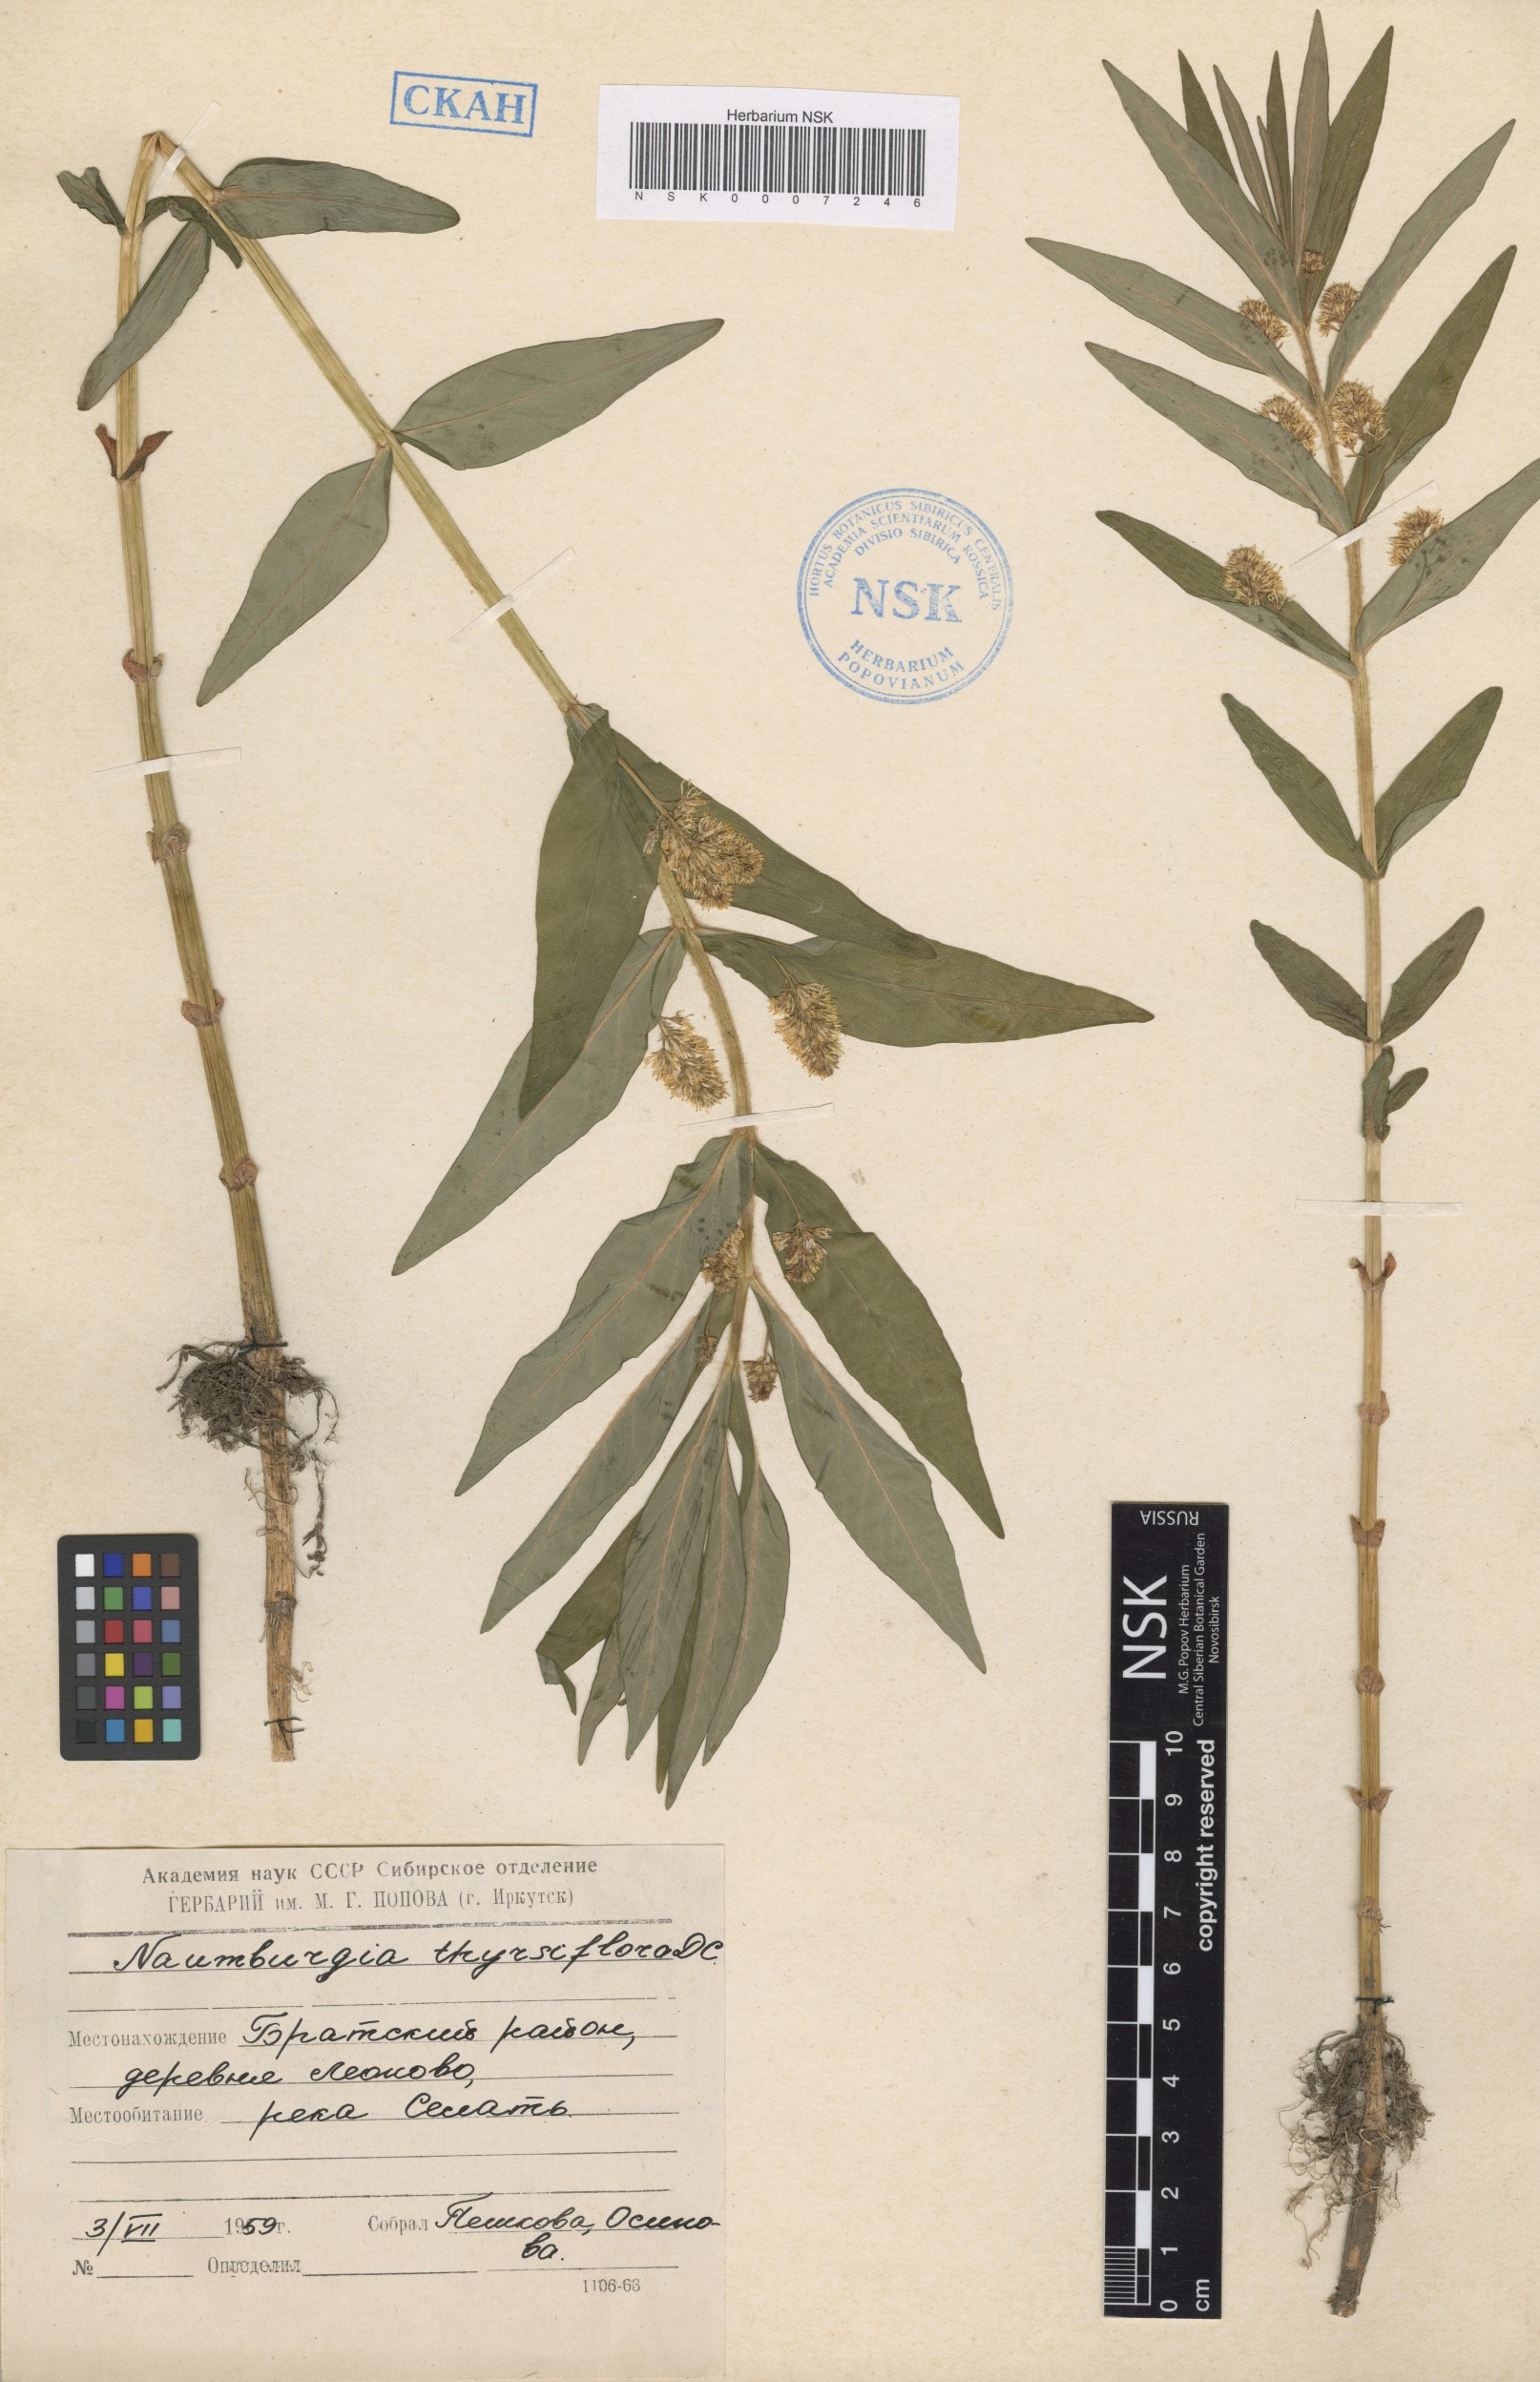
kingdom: Plantae
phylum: Tracheophyta
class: Magnoliopsida
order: Ericales
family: Primulaceae
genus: Lysimachia
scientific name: Lysimachia thyrsiflora
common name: Tufted loosestrife
